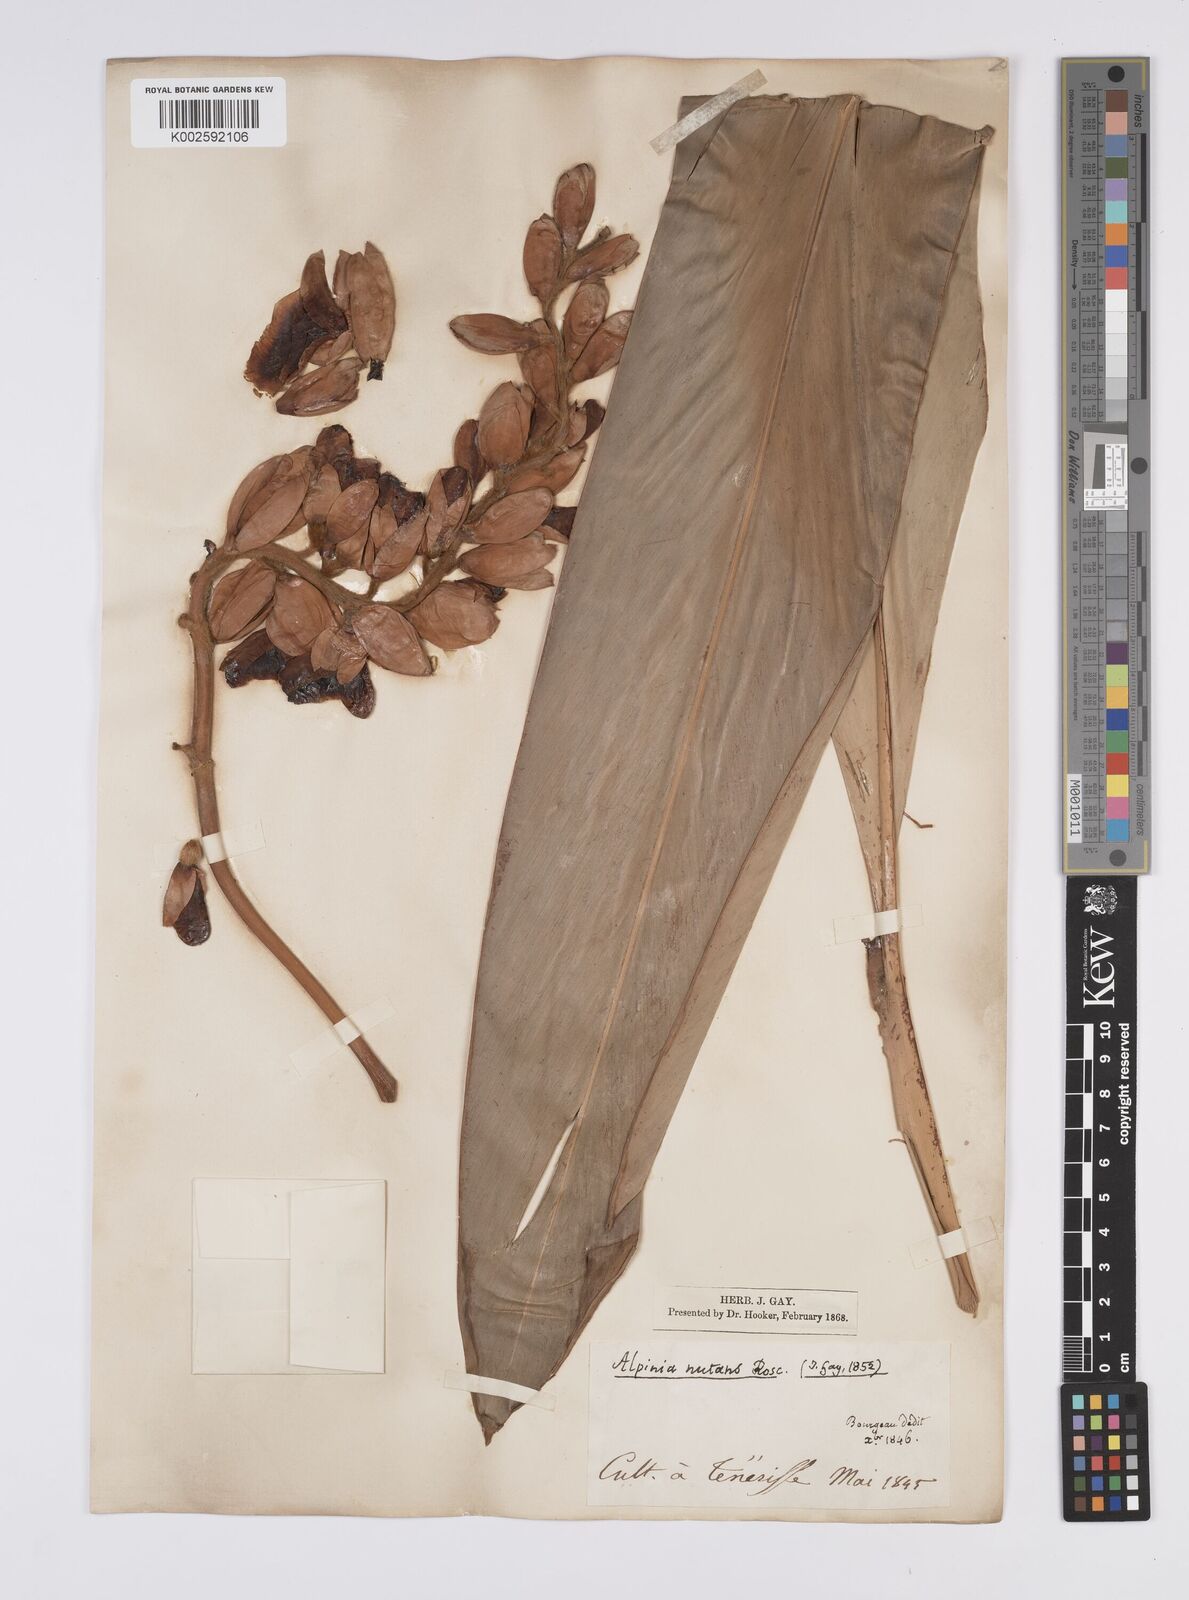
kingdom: Plantae
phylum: Tracheophyta
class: Liliopsida
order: Zingiberales
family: Zingiberaceae
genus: Alpinia
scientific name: Alpinia
